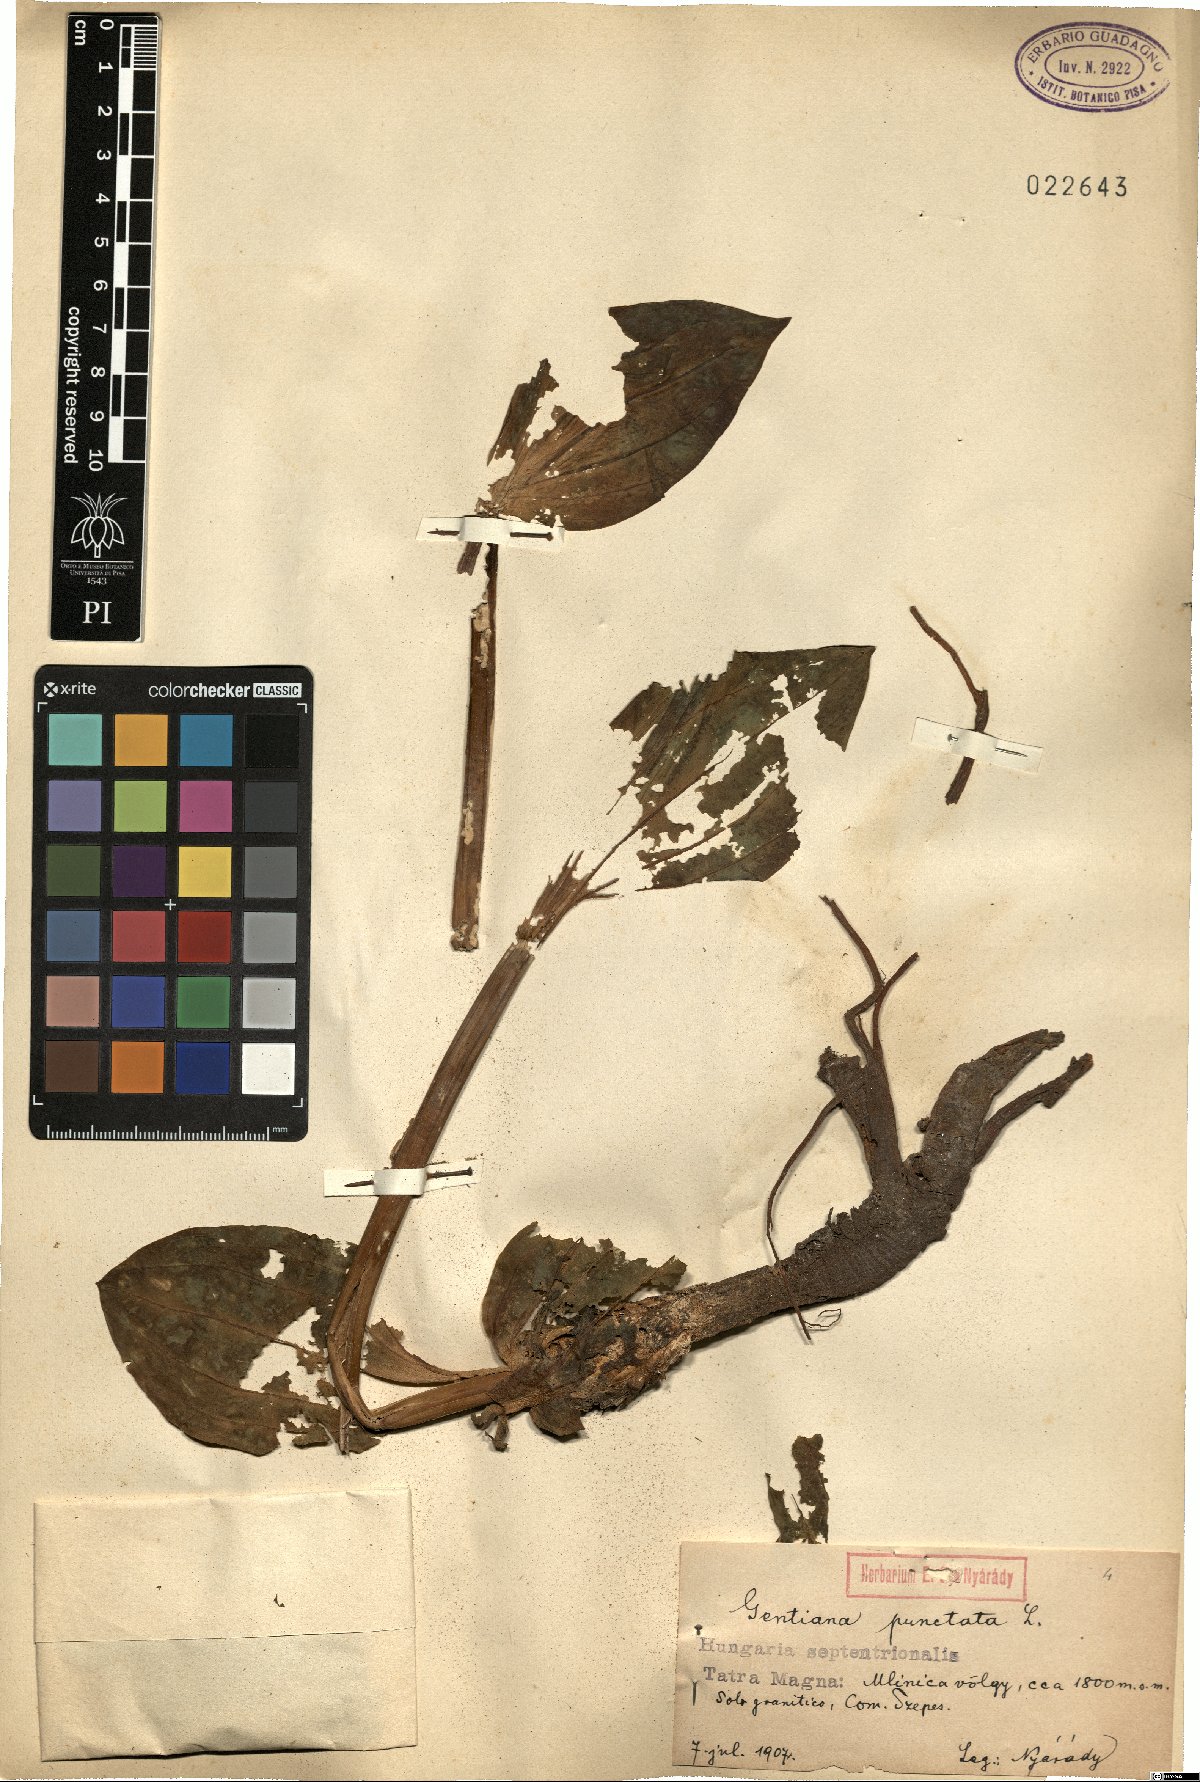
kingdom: Plantae
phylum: Tracheophyta
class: Magnoliopsida
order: Gentianales
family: Gentianaceae
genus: Gentiana
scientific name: Gentiana punctata
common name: Spotted gentian
